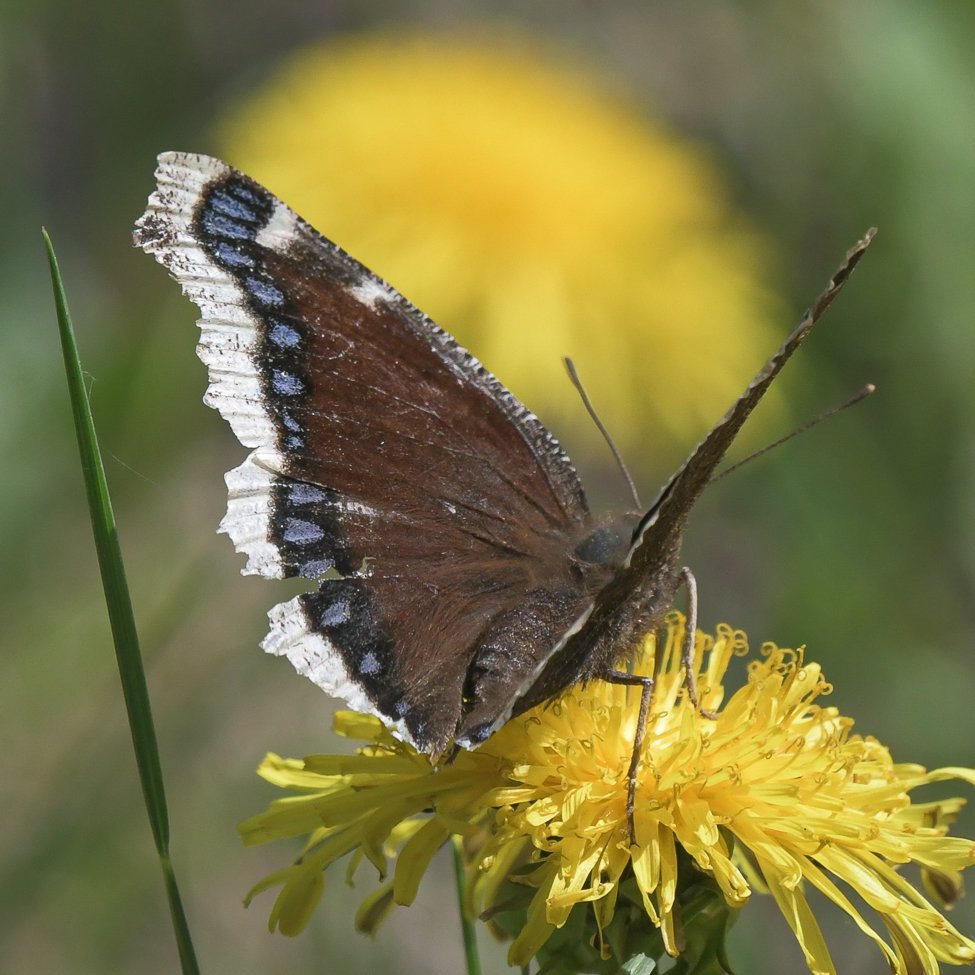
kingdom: Animalia
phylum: Arthropoda
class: Insecta
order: Lepidoptera
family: Nymphalidae
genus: Nymphalis
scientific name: Nymphalis antiopa
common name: Mourning Cloak
